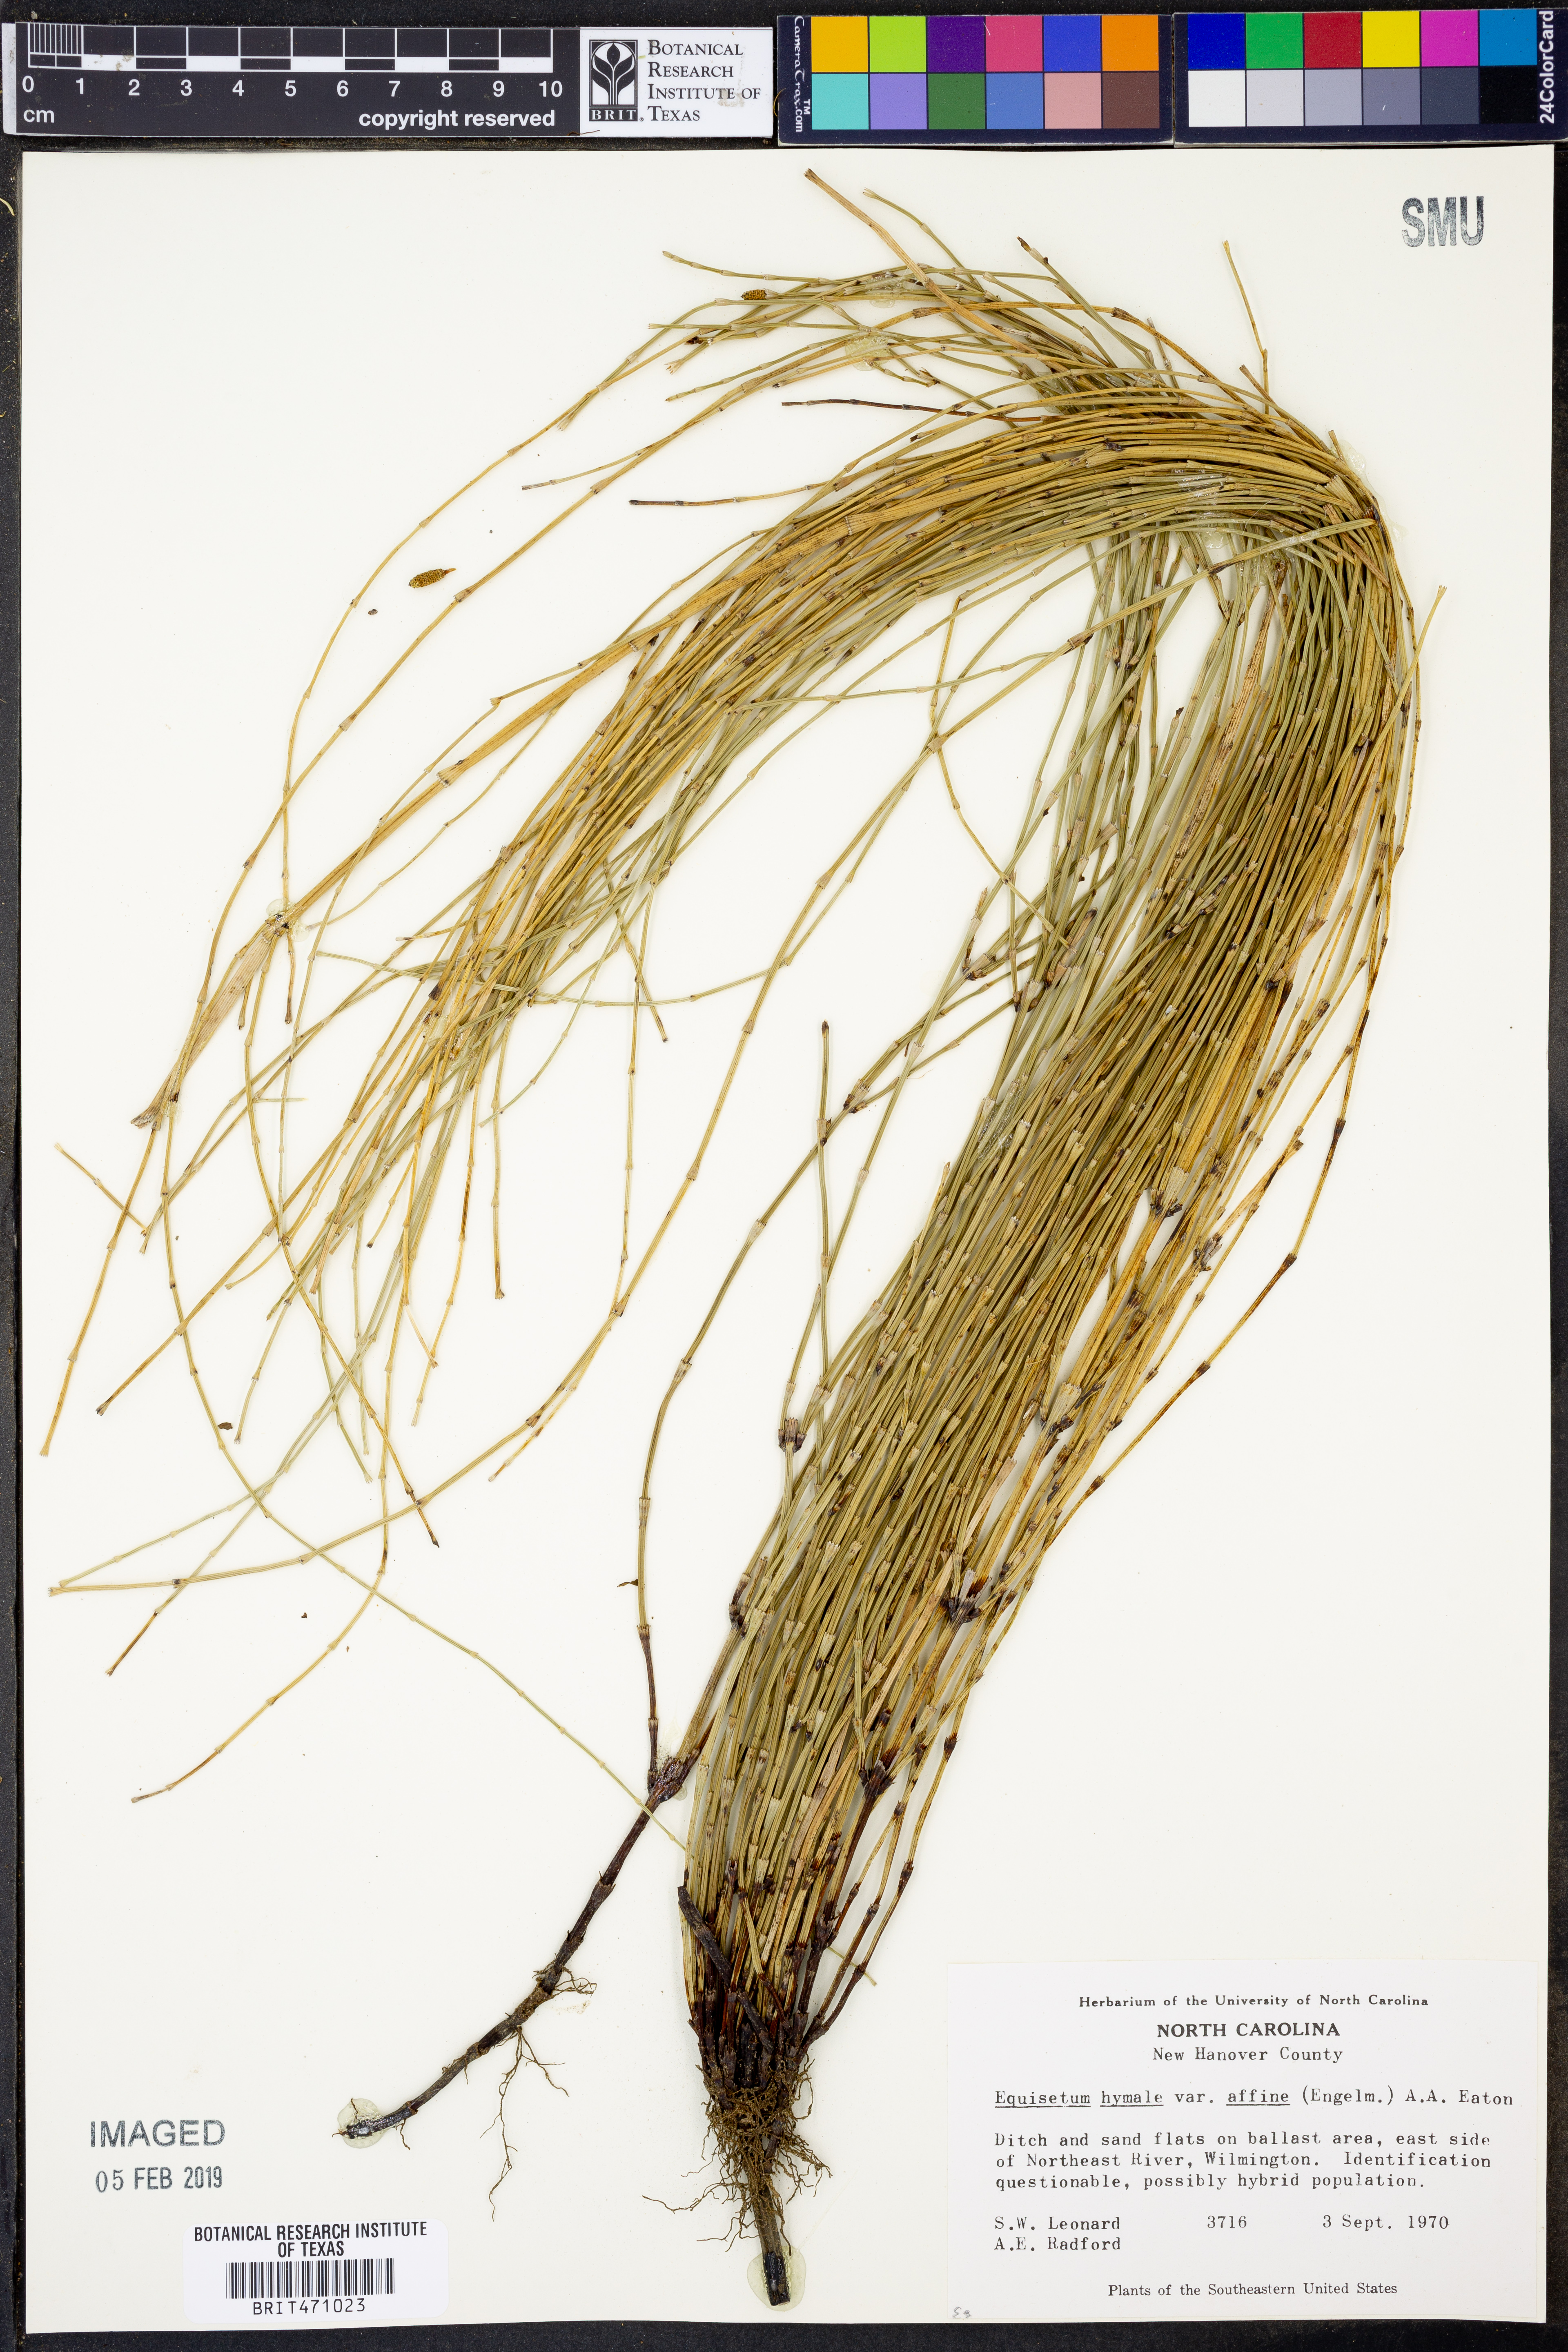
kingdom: Plantae
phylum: Tracheophyta
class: Polypodiopsida
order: Equisetales
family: Equisetaceae
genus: Equisetum
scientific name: Equisetum praealtum
